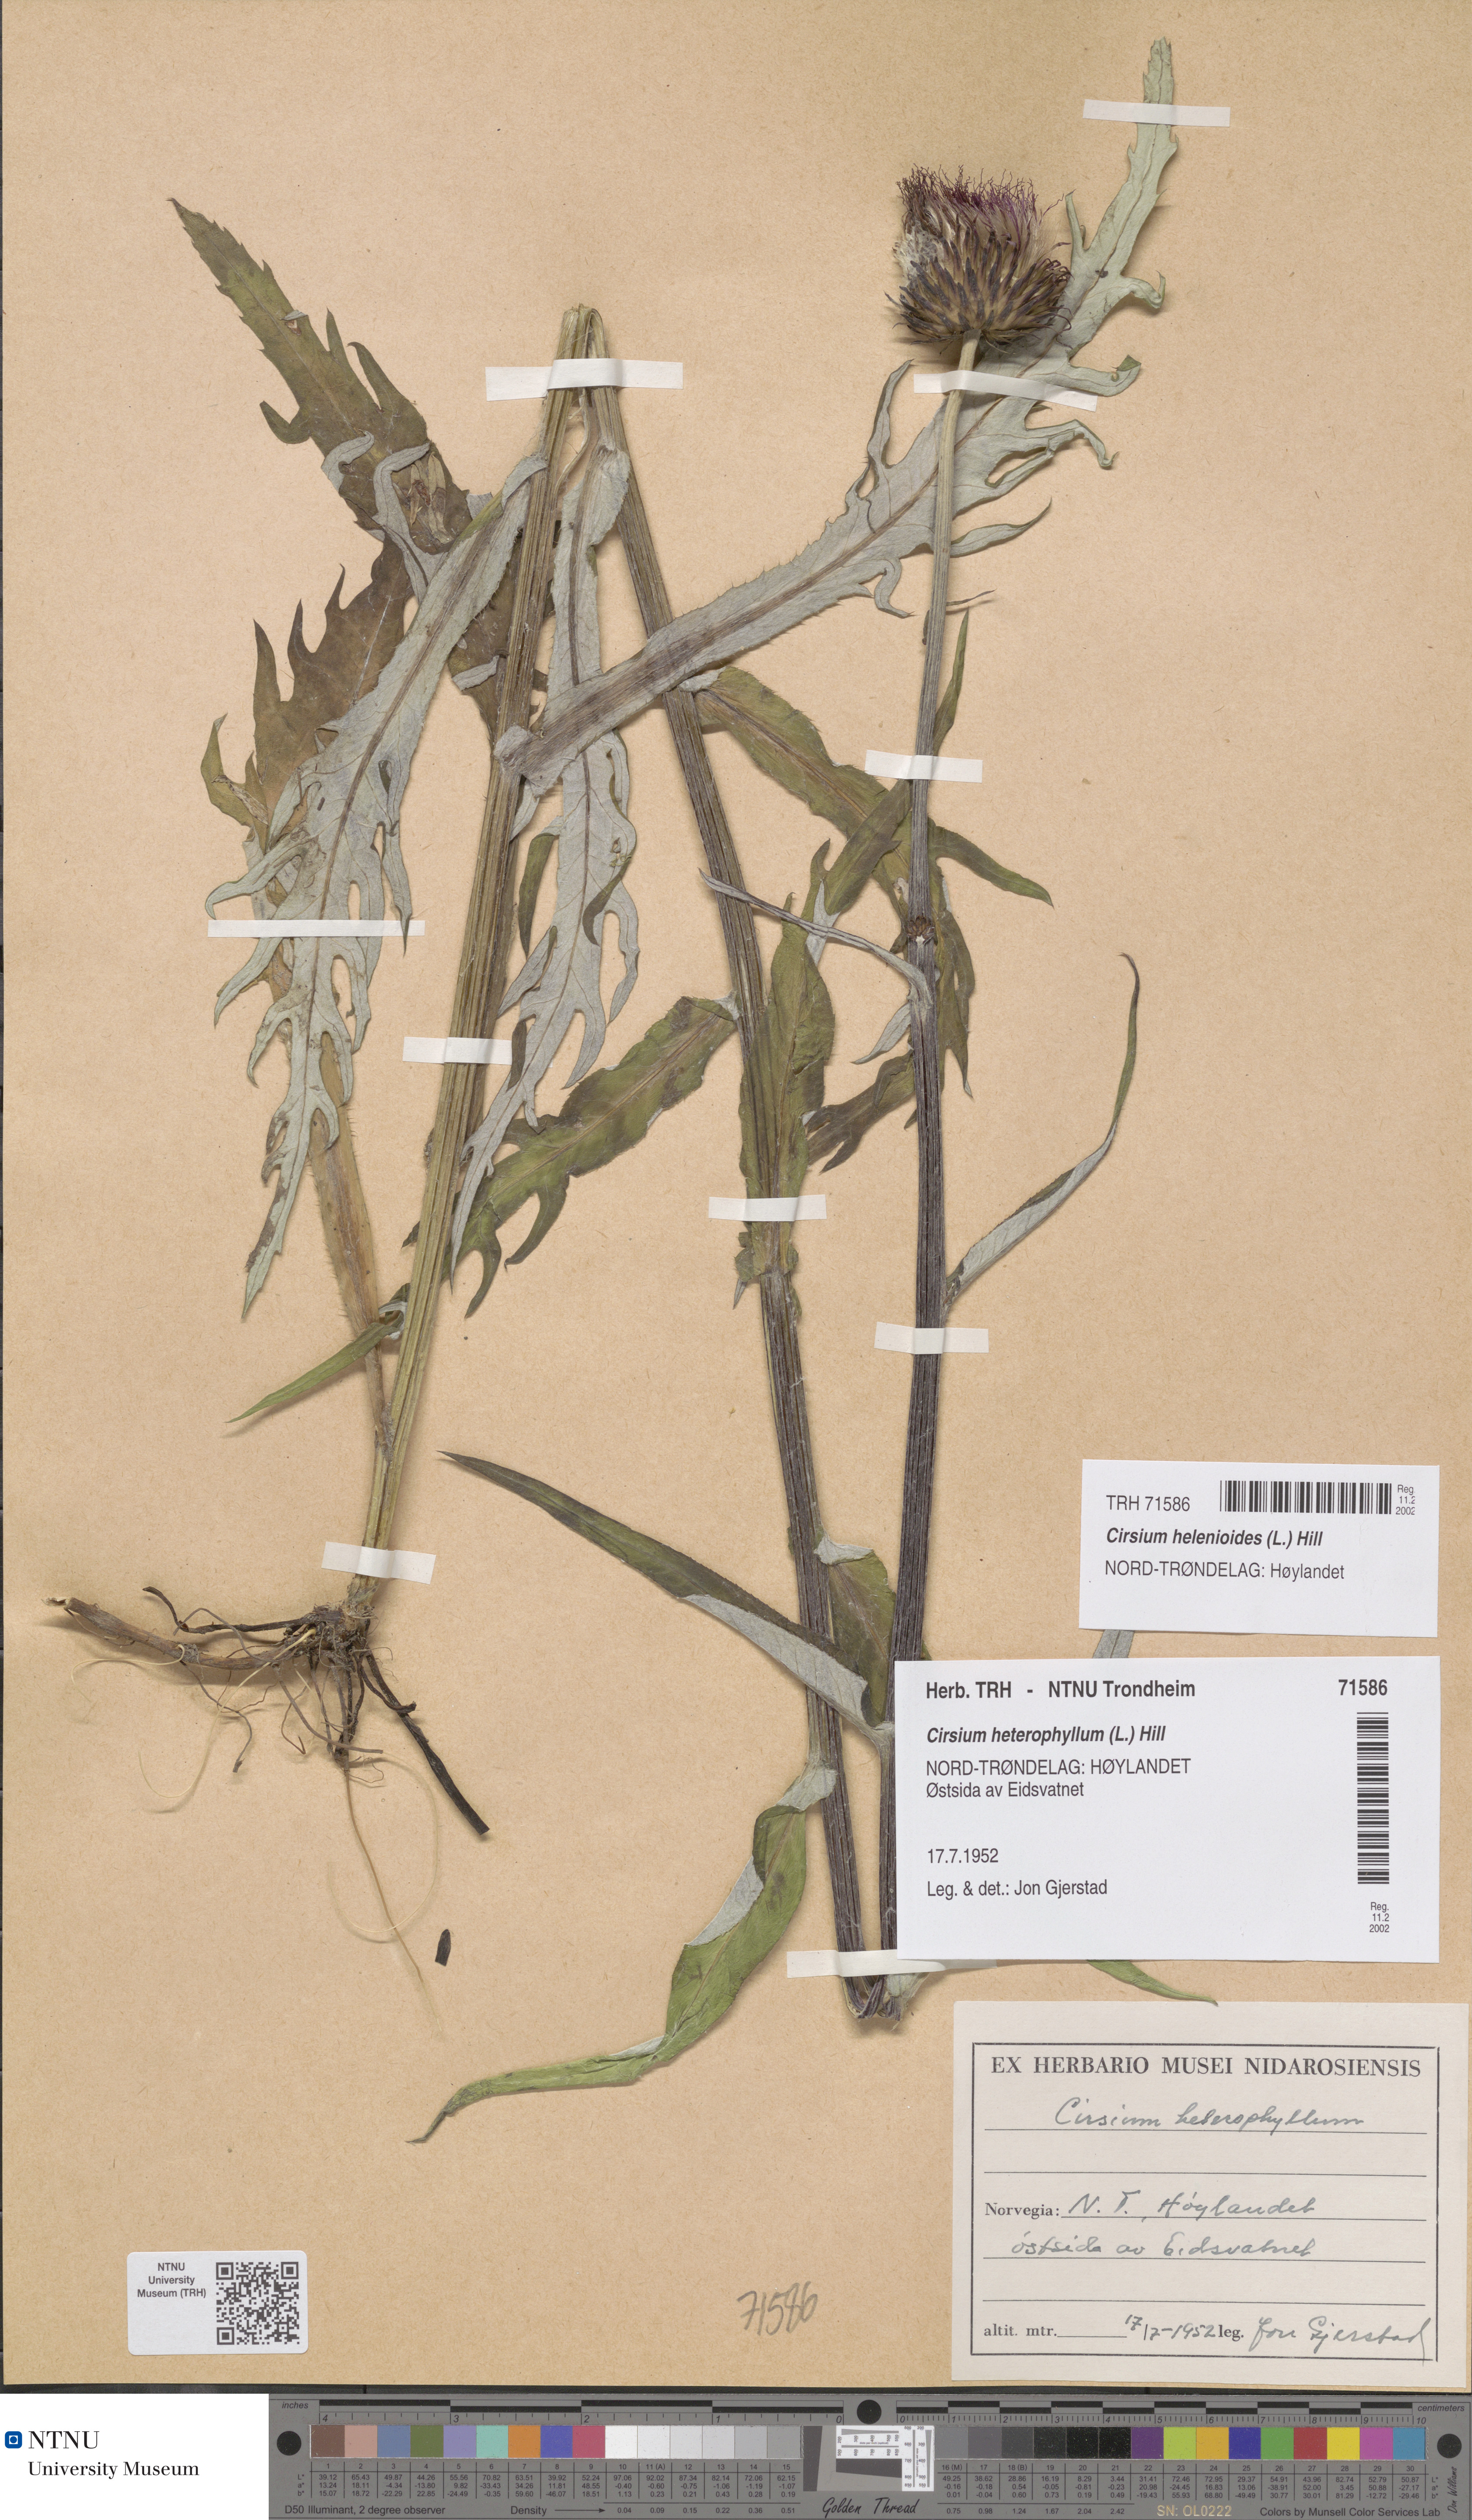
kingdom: Plantae
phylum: Tracheophyta
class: Magnoliopsida
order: Asterales
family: Asteraceae
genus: Cirsium
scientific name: Cirsium heterophyllum
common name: Melancholy thistle
